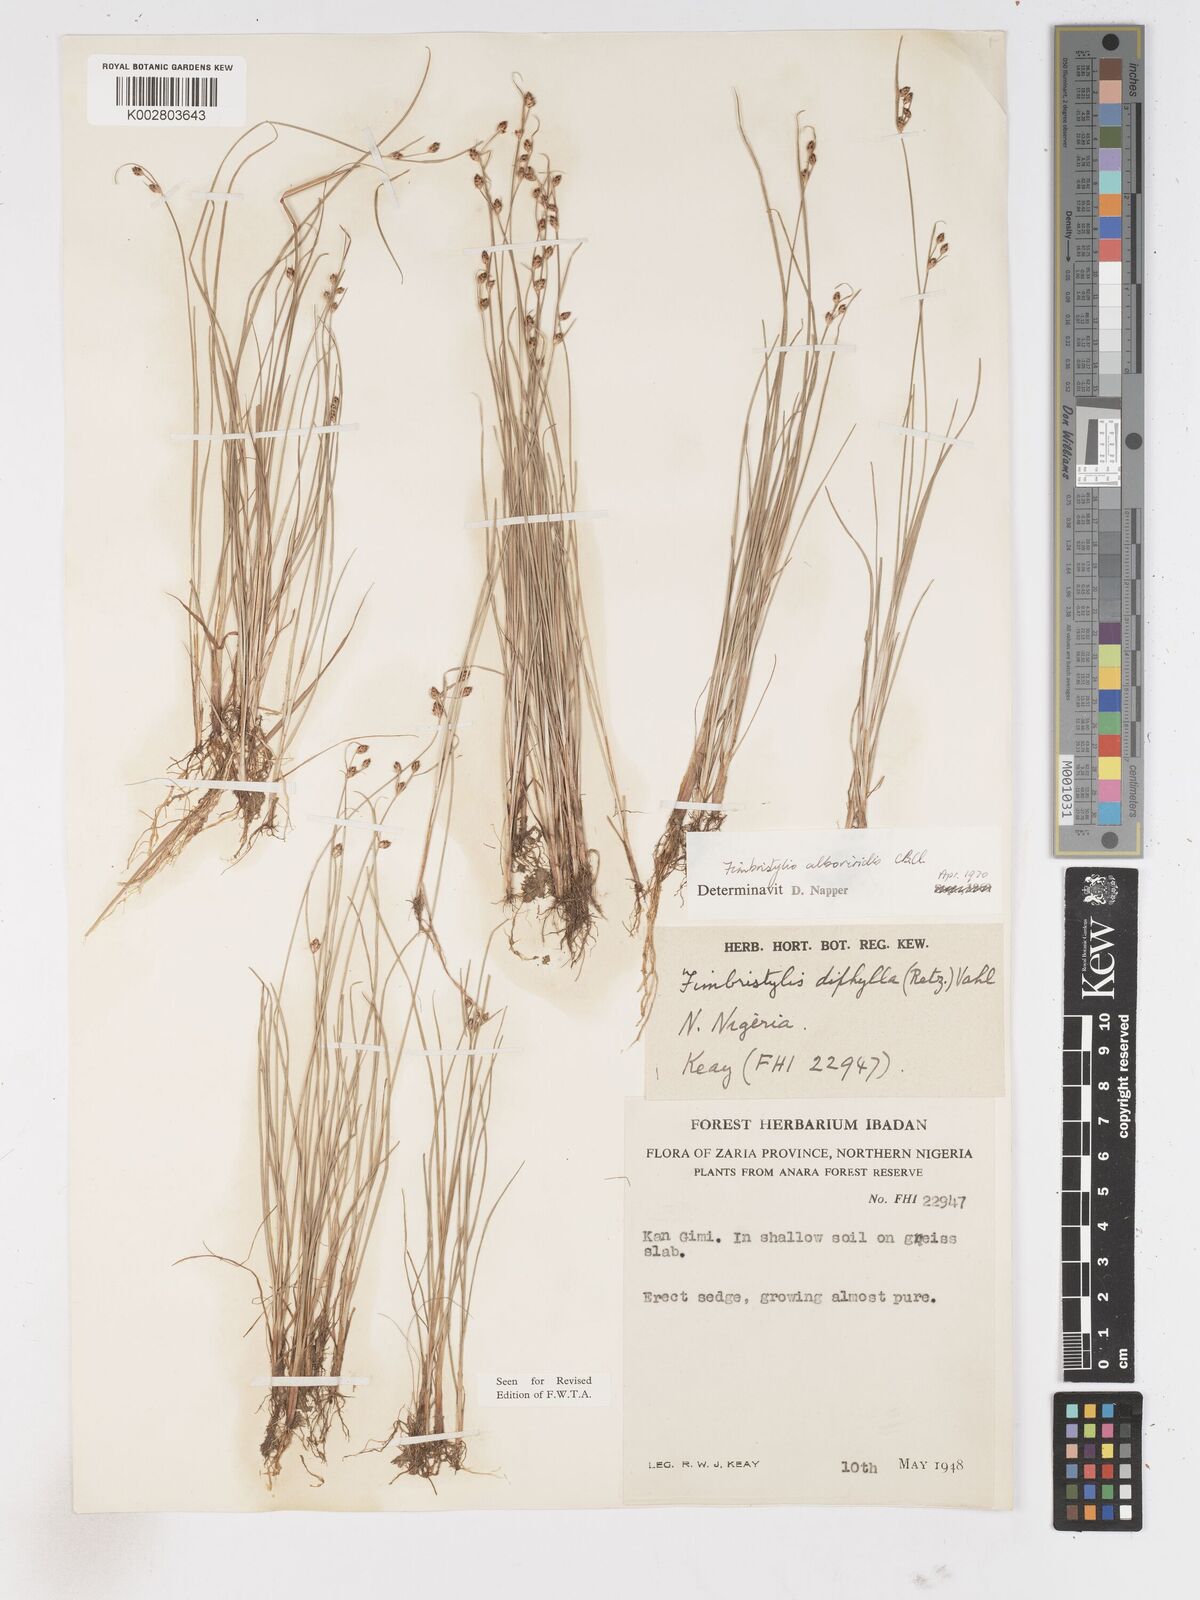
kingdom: Plantae
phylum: Tracheophyta
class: Liliopsida
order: Poales
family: Cyperaceae
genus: Fimbristylis
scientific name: Fimbristylis alboviridis
